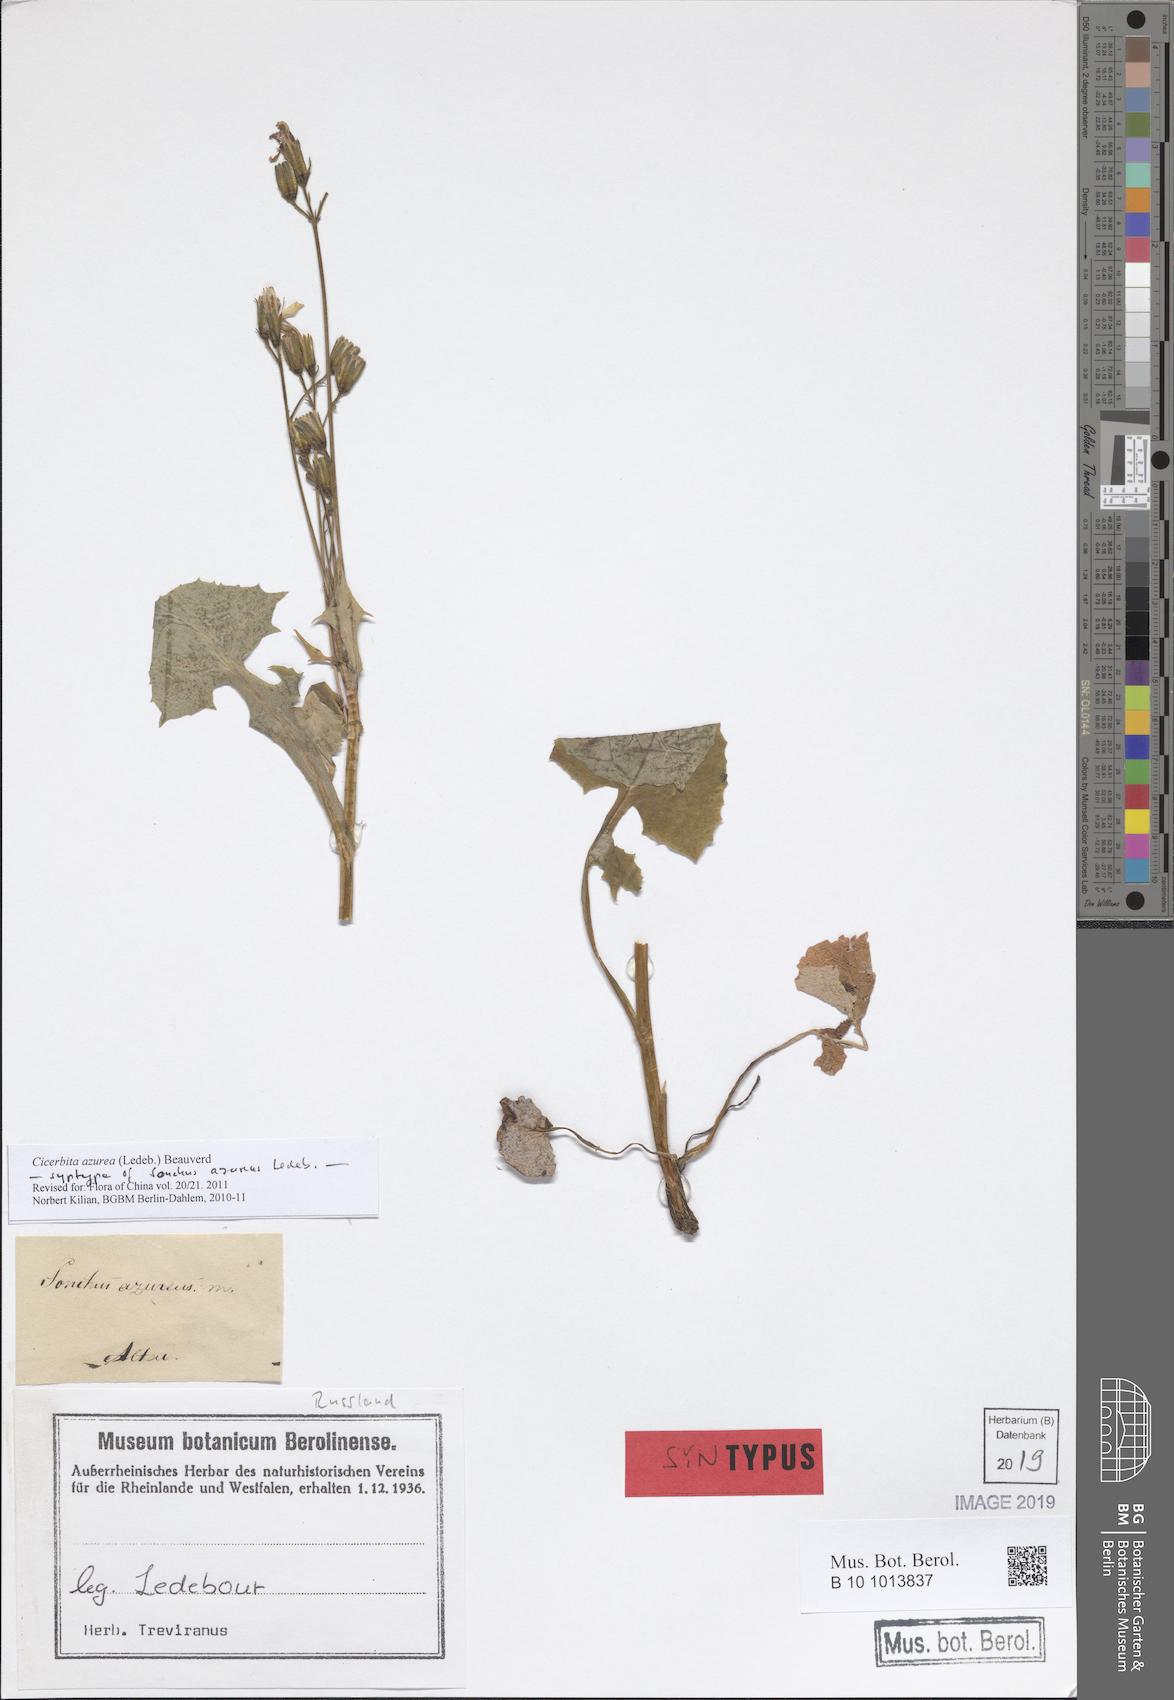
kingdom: Plantae
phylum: Tracheophyta
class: Magnoliopsida
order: Asterales
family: Asteraceae
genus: Cicerbita
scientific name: Cicerbita azurea
